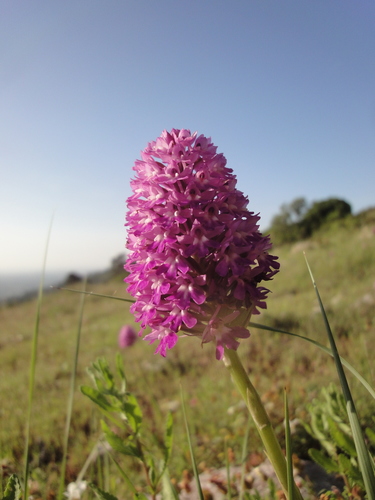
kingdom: Plantae
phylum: Tracheophyta
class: Liliopsida
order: Asparagales
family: Orchidaceae
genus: Anacamptis
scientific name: Anacamptis pyramidalis
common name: Pyramidal orchid
